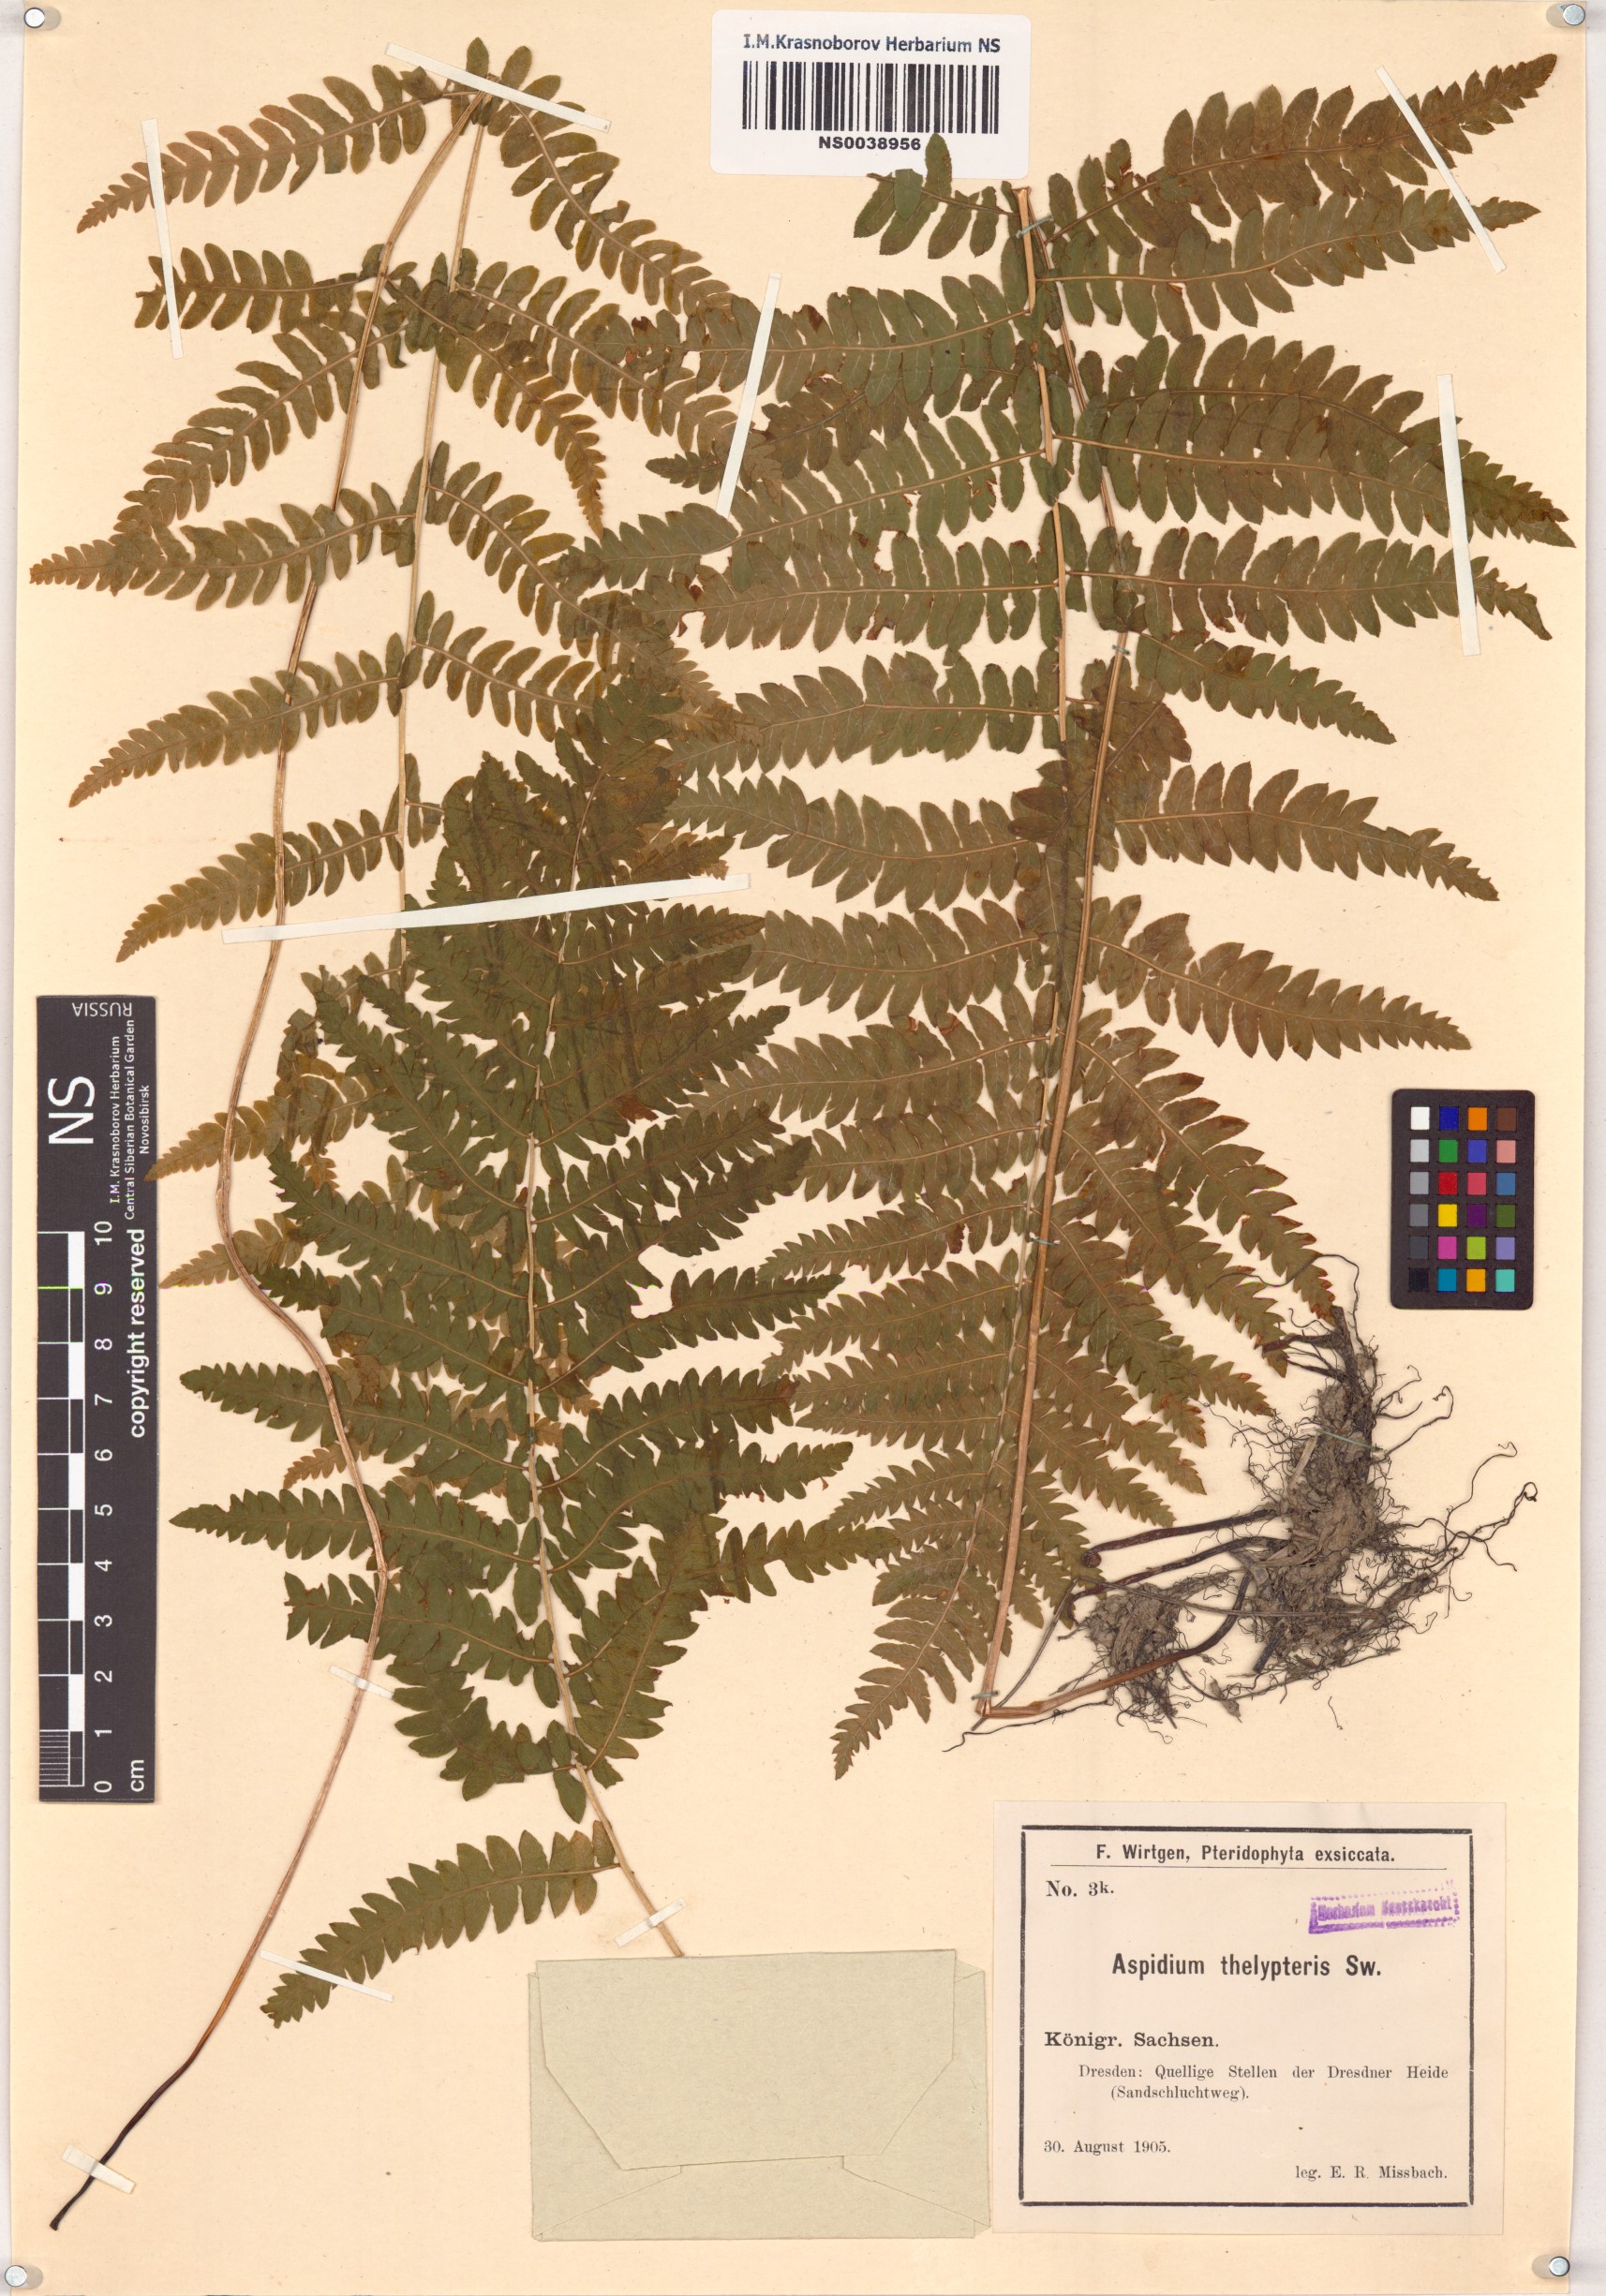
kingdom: Plantae
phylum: Tracheophyta
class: Polypodiopsida
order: Polypodiales
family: Thelypteridaceae
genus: Thelypteris
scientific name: Thelypteris palustris
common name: Marsh fern
